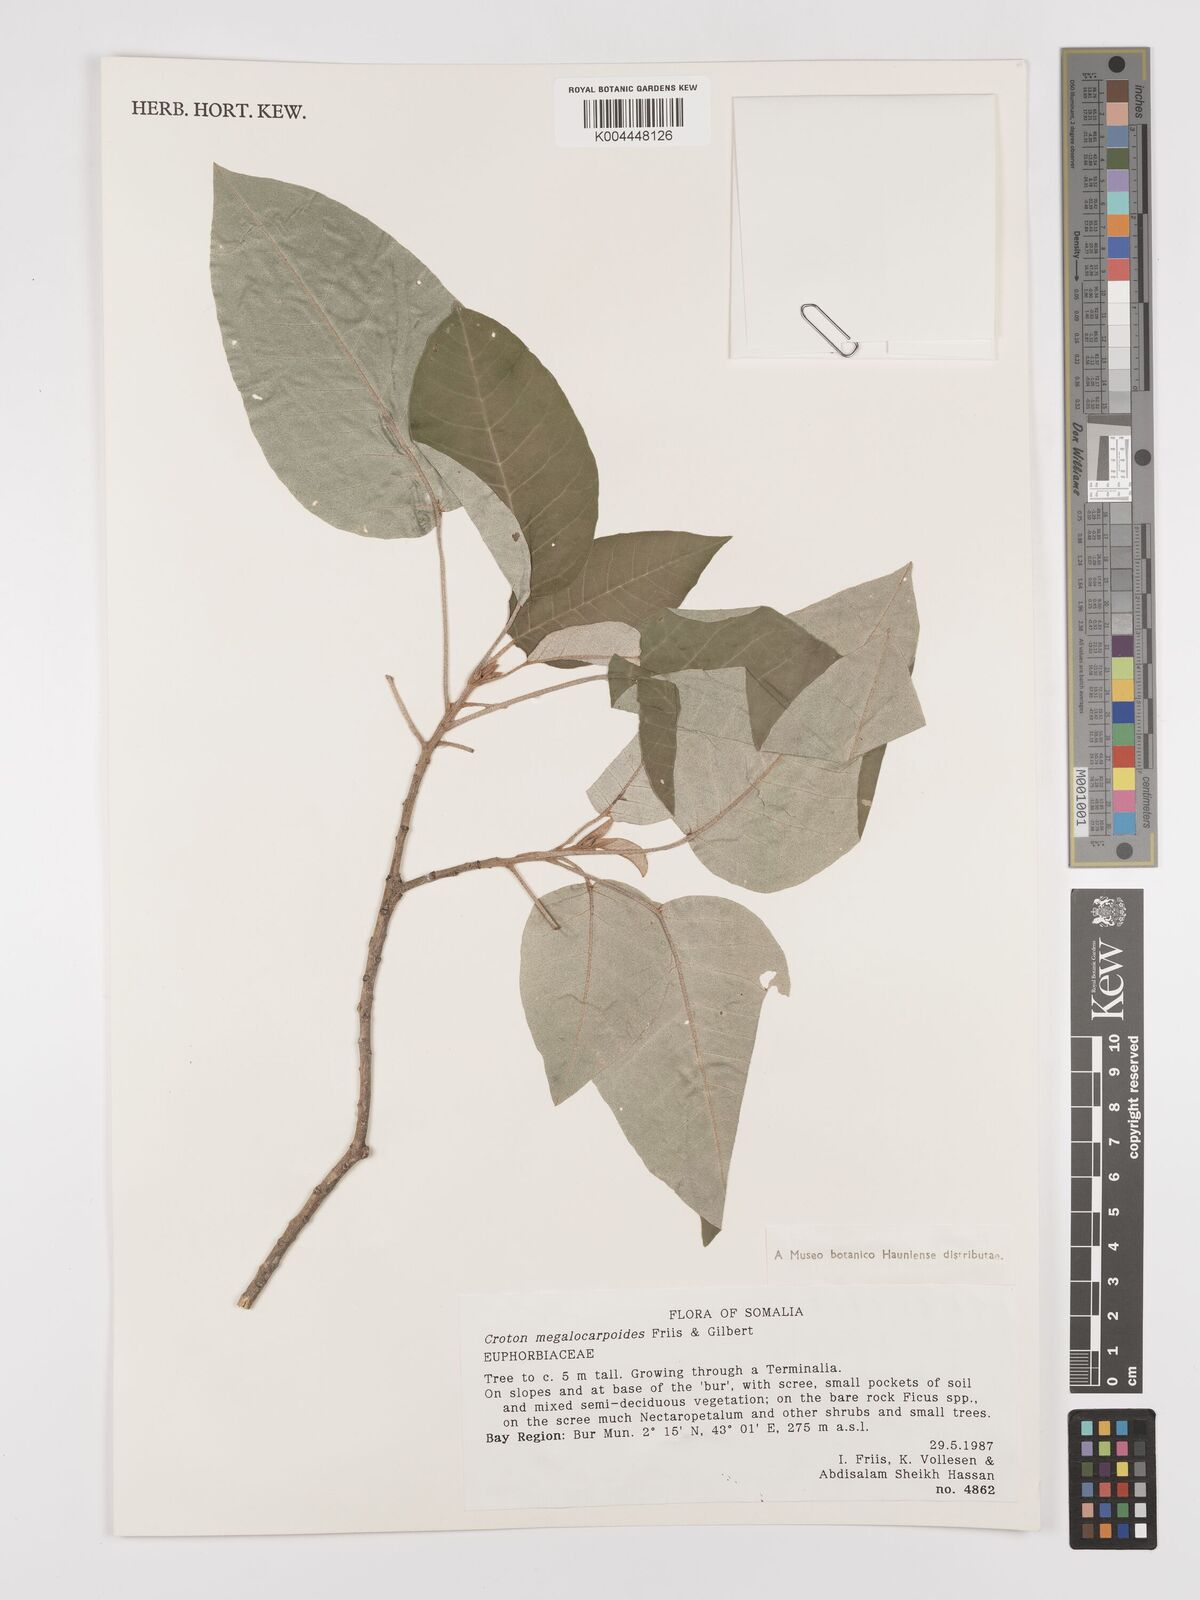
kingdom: Plantae
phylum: Tracheophyta
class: Magnoliopsida
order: Malpighiales
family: Euphorbiaceae
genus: Croton
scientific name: Croton megalocarpoides
